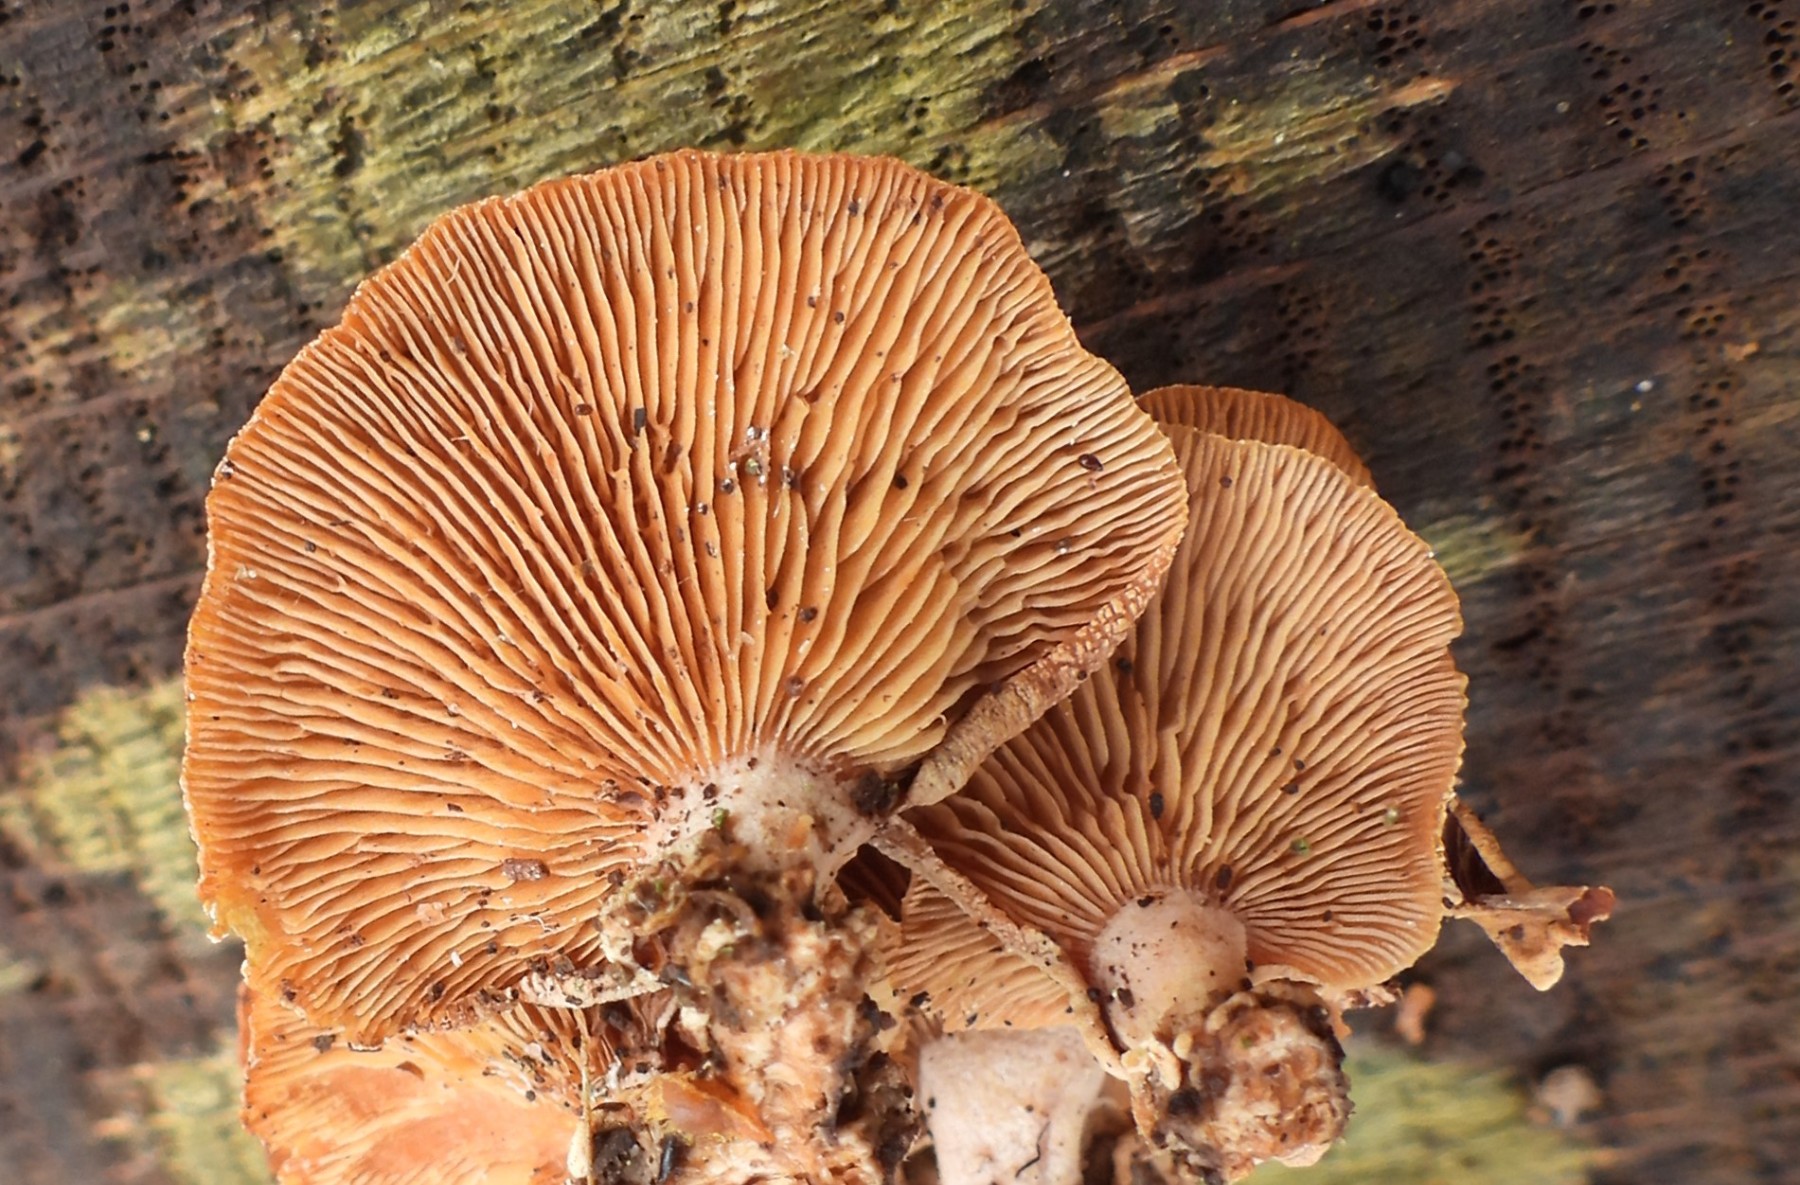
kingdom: Fungi
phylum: Basidiomycota
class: Agaricomycetes
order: Agaricales
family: Mycenaceae
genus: Panellus
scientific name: Panellus stipticus
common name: kliddet epaulethat
